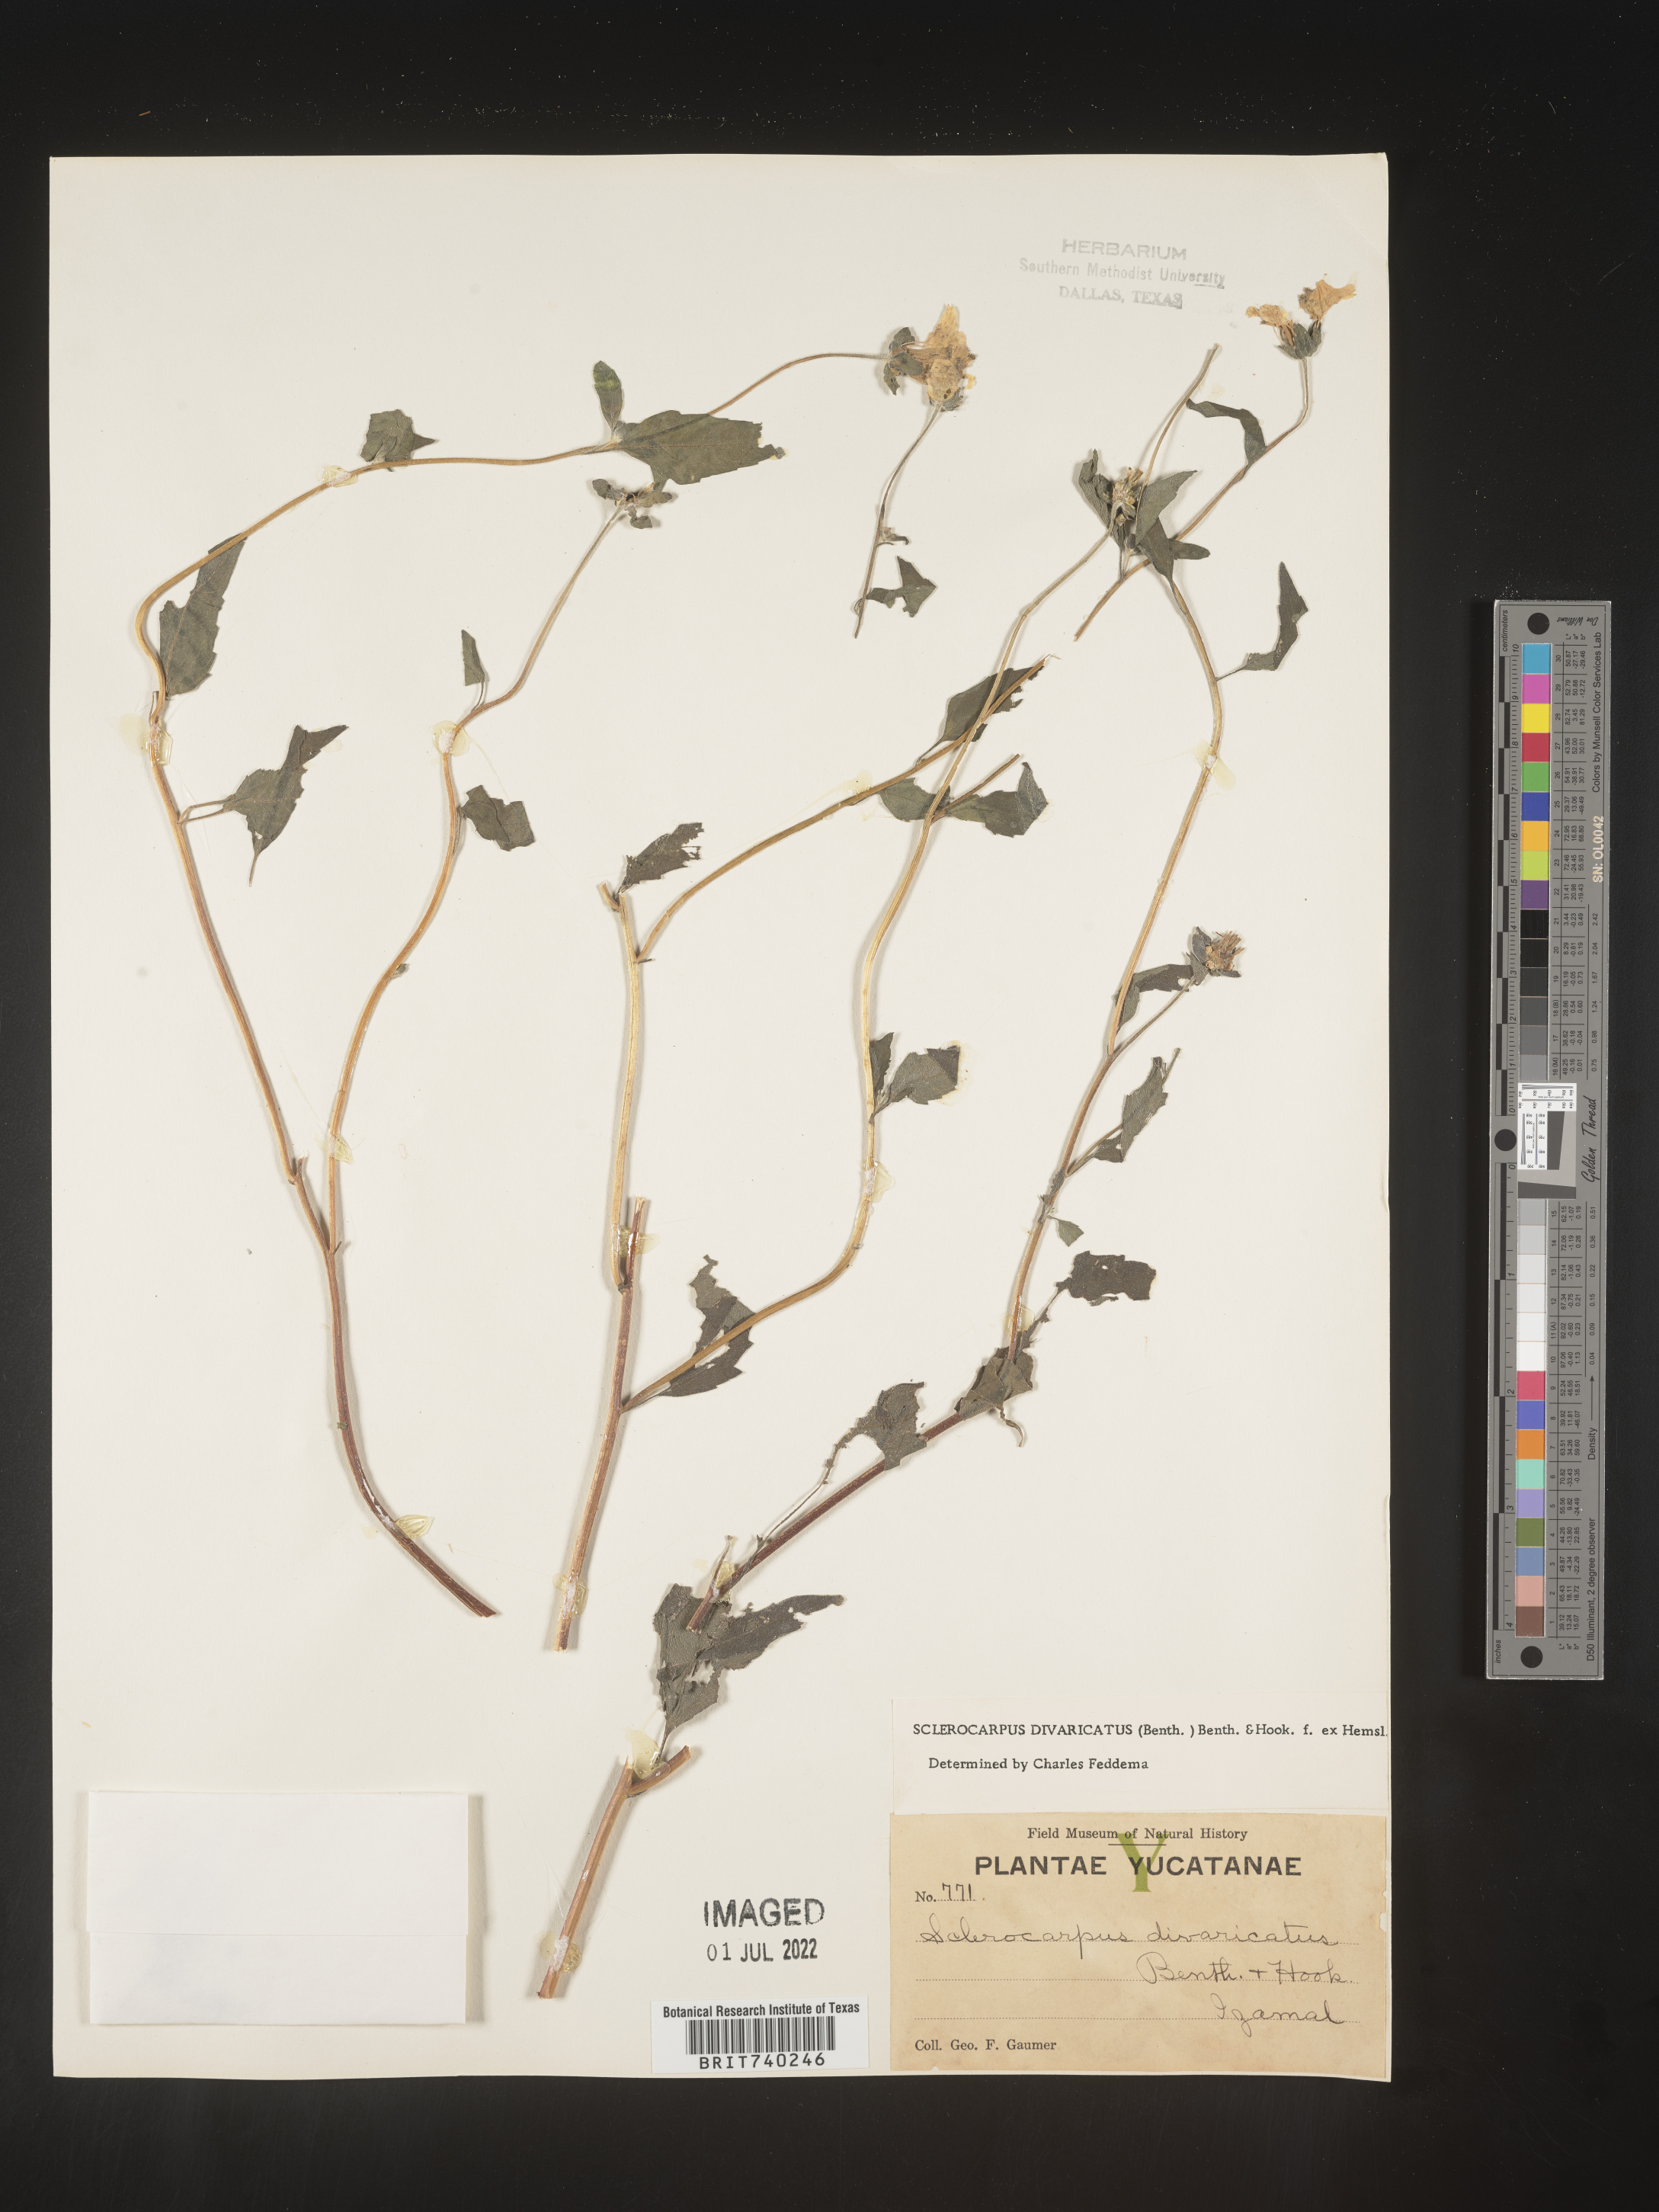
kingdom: Plantae
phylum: Tracheophyta
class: Magnoliopsida
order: Asterales
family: Asteraceae
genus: Sclerocarpus
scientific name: Sclerocarpus
